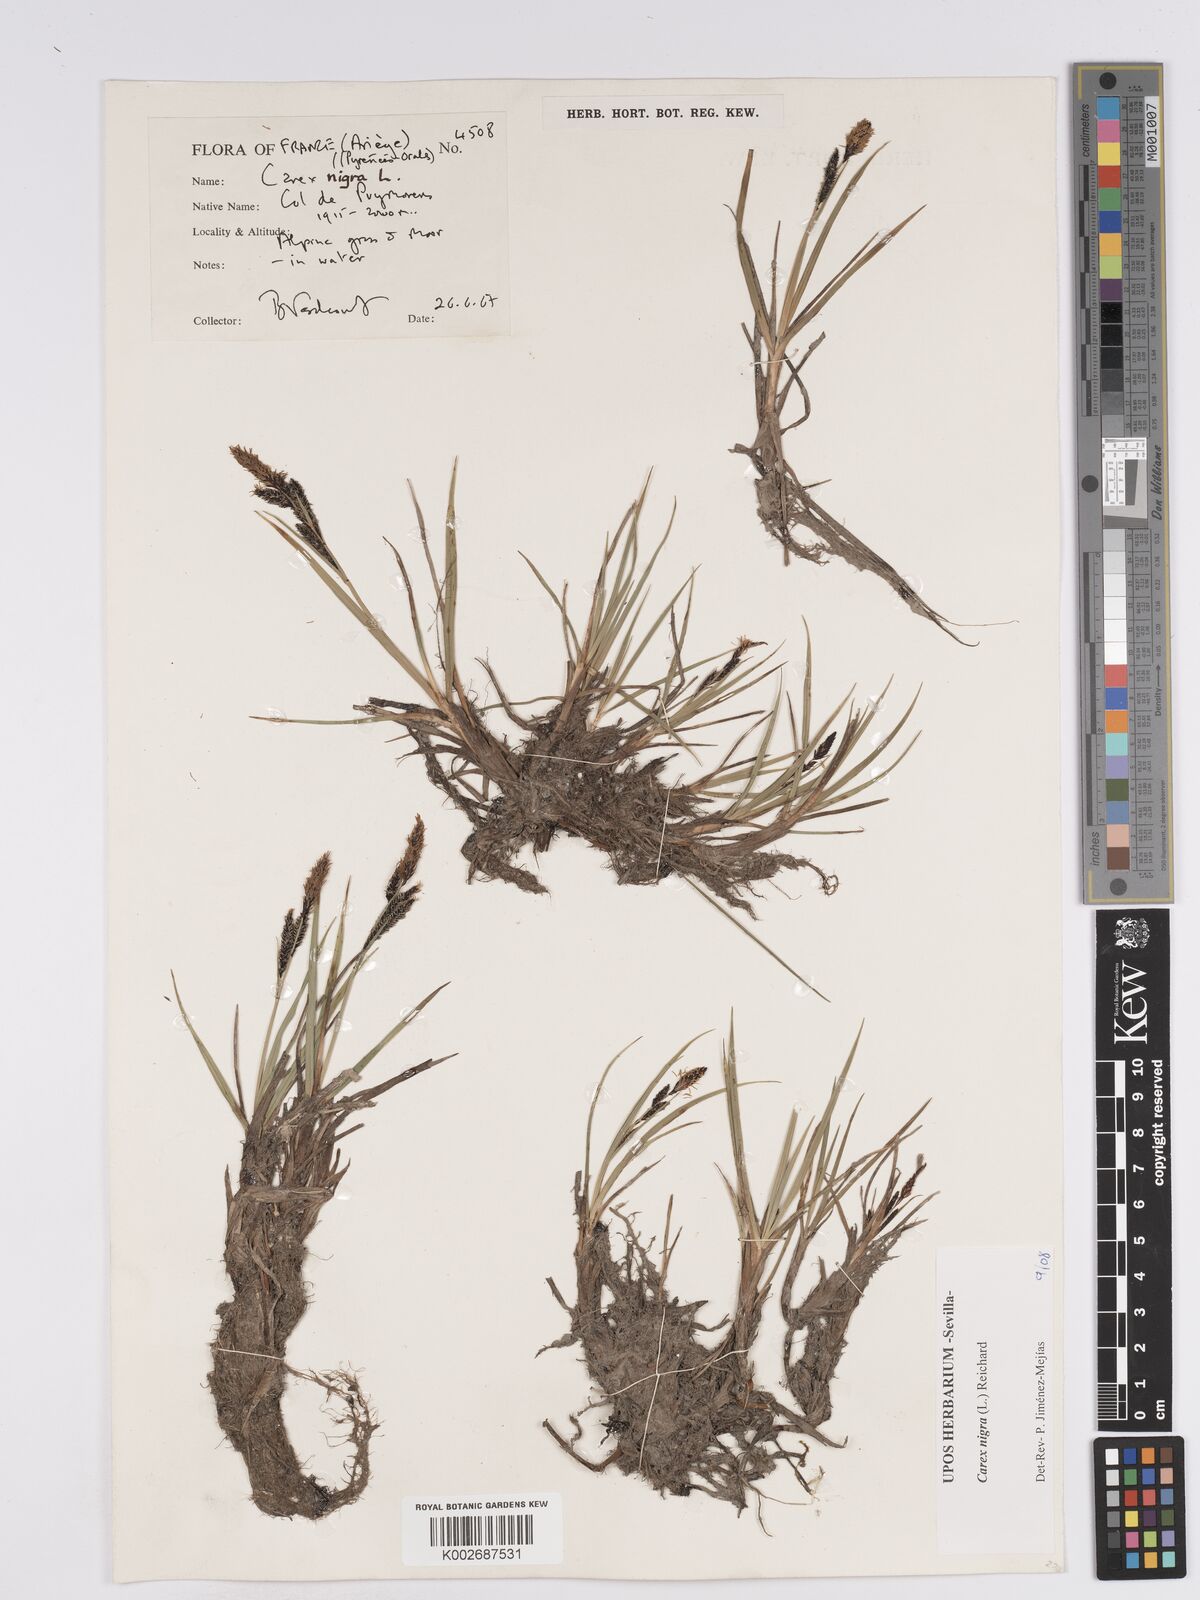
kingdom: Plantae
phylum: Tracheophyta
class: Liliopsida
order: Poales
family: Cyperaceae
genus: Carex
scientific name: Carex nigra
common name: Common sedge
